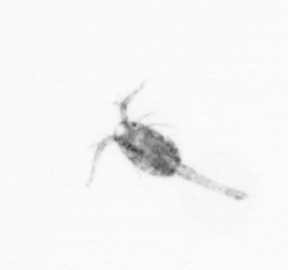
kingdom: Animalia
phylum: Arthropoda
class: Copepoda
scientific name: Copepoda
